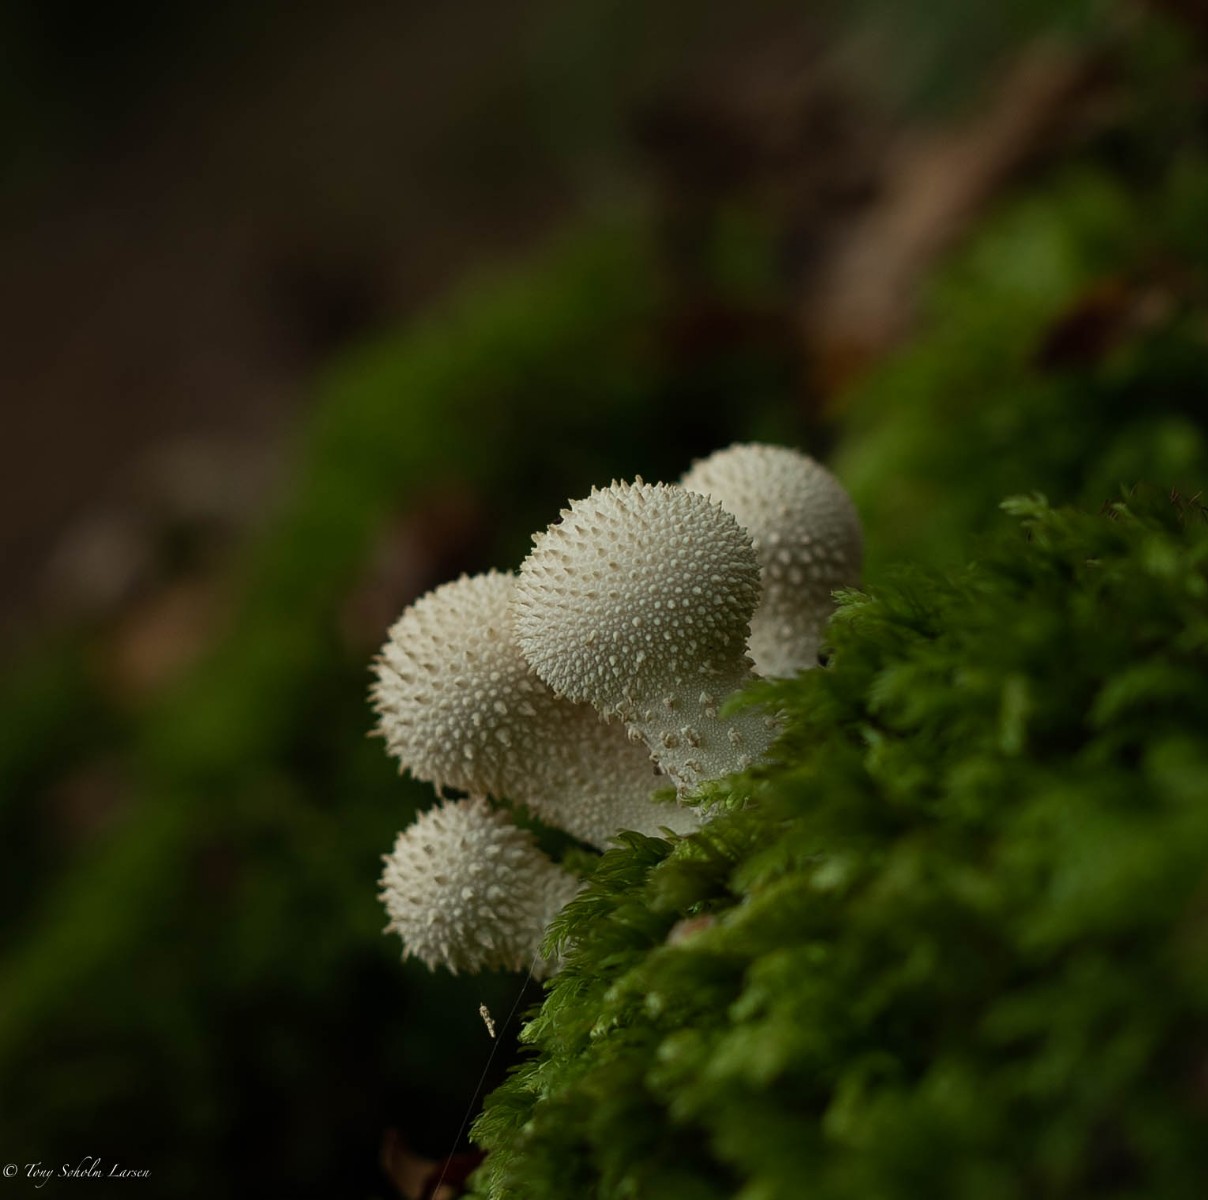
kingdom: Fungi
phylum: Basidiomycota
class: Agaricomycetes
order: Agaricales
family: Lycoperdaceae
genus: Lycoperdon
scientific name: Lycoperdon perlatum
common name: krystal-støvbold
